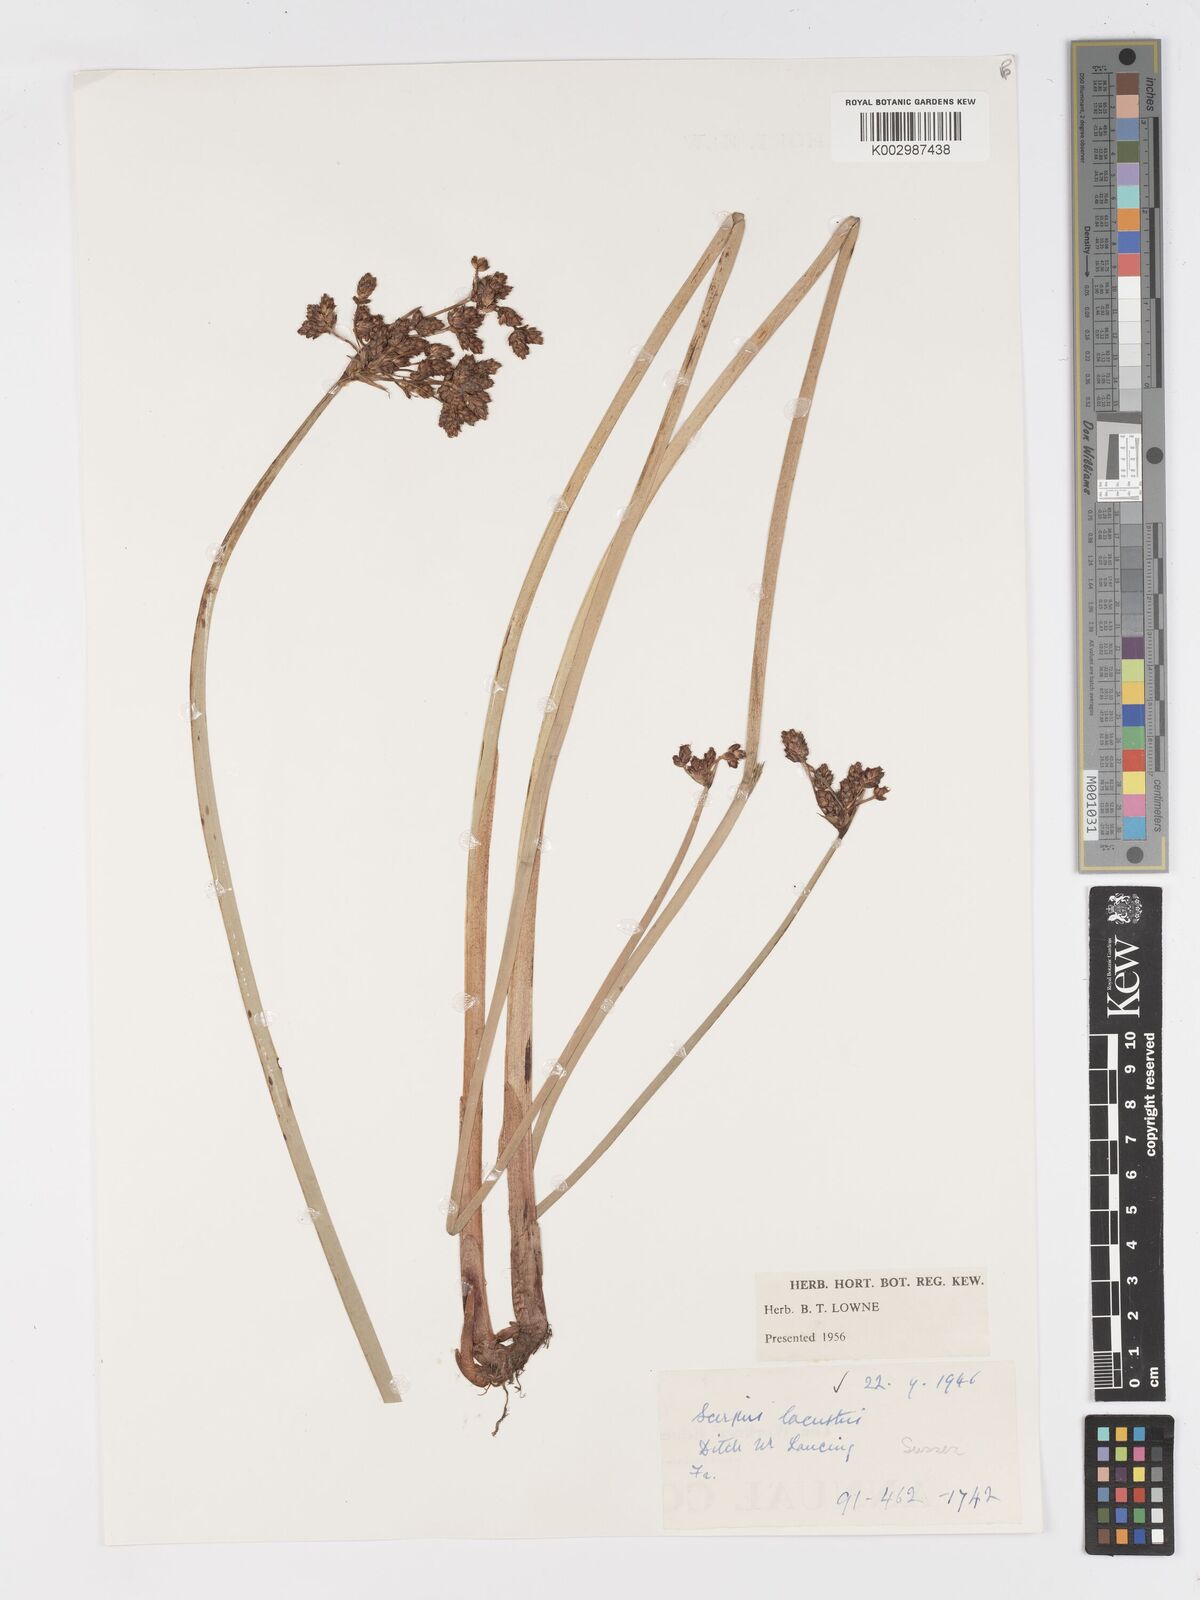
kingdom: Plantae
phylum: Tracheophyta
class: Liliopsida
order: Poales
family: Cyperaceae
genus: Schoenoplectus
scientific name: Schoenoplectus lacustris
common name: Common club-rush
